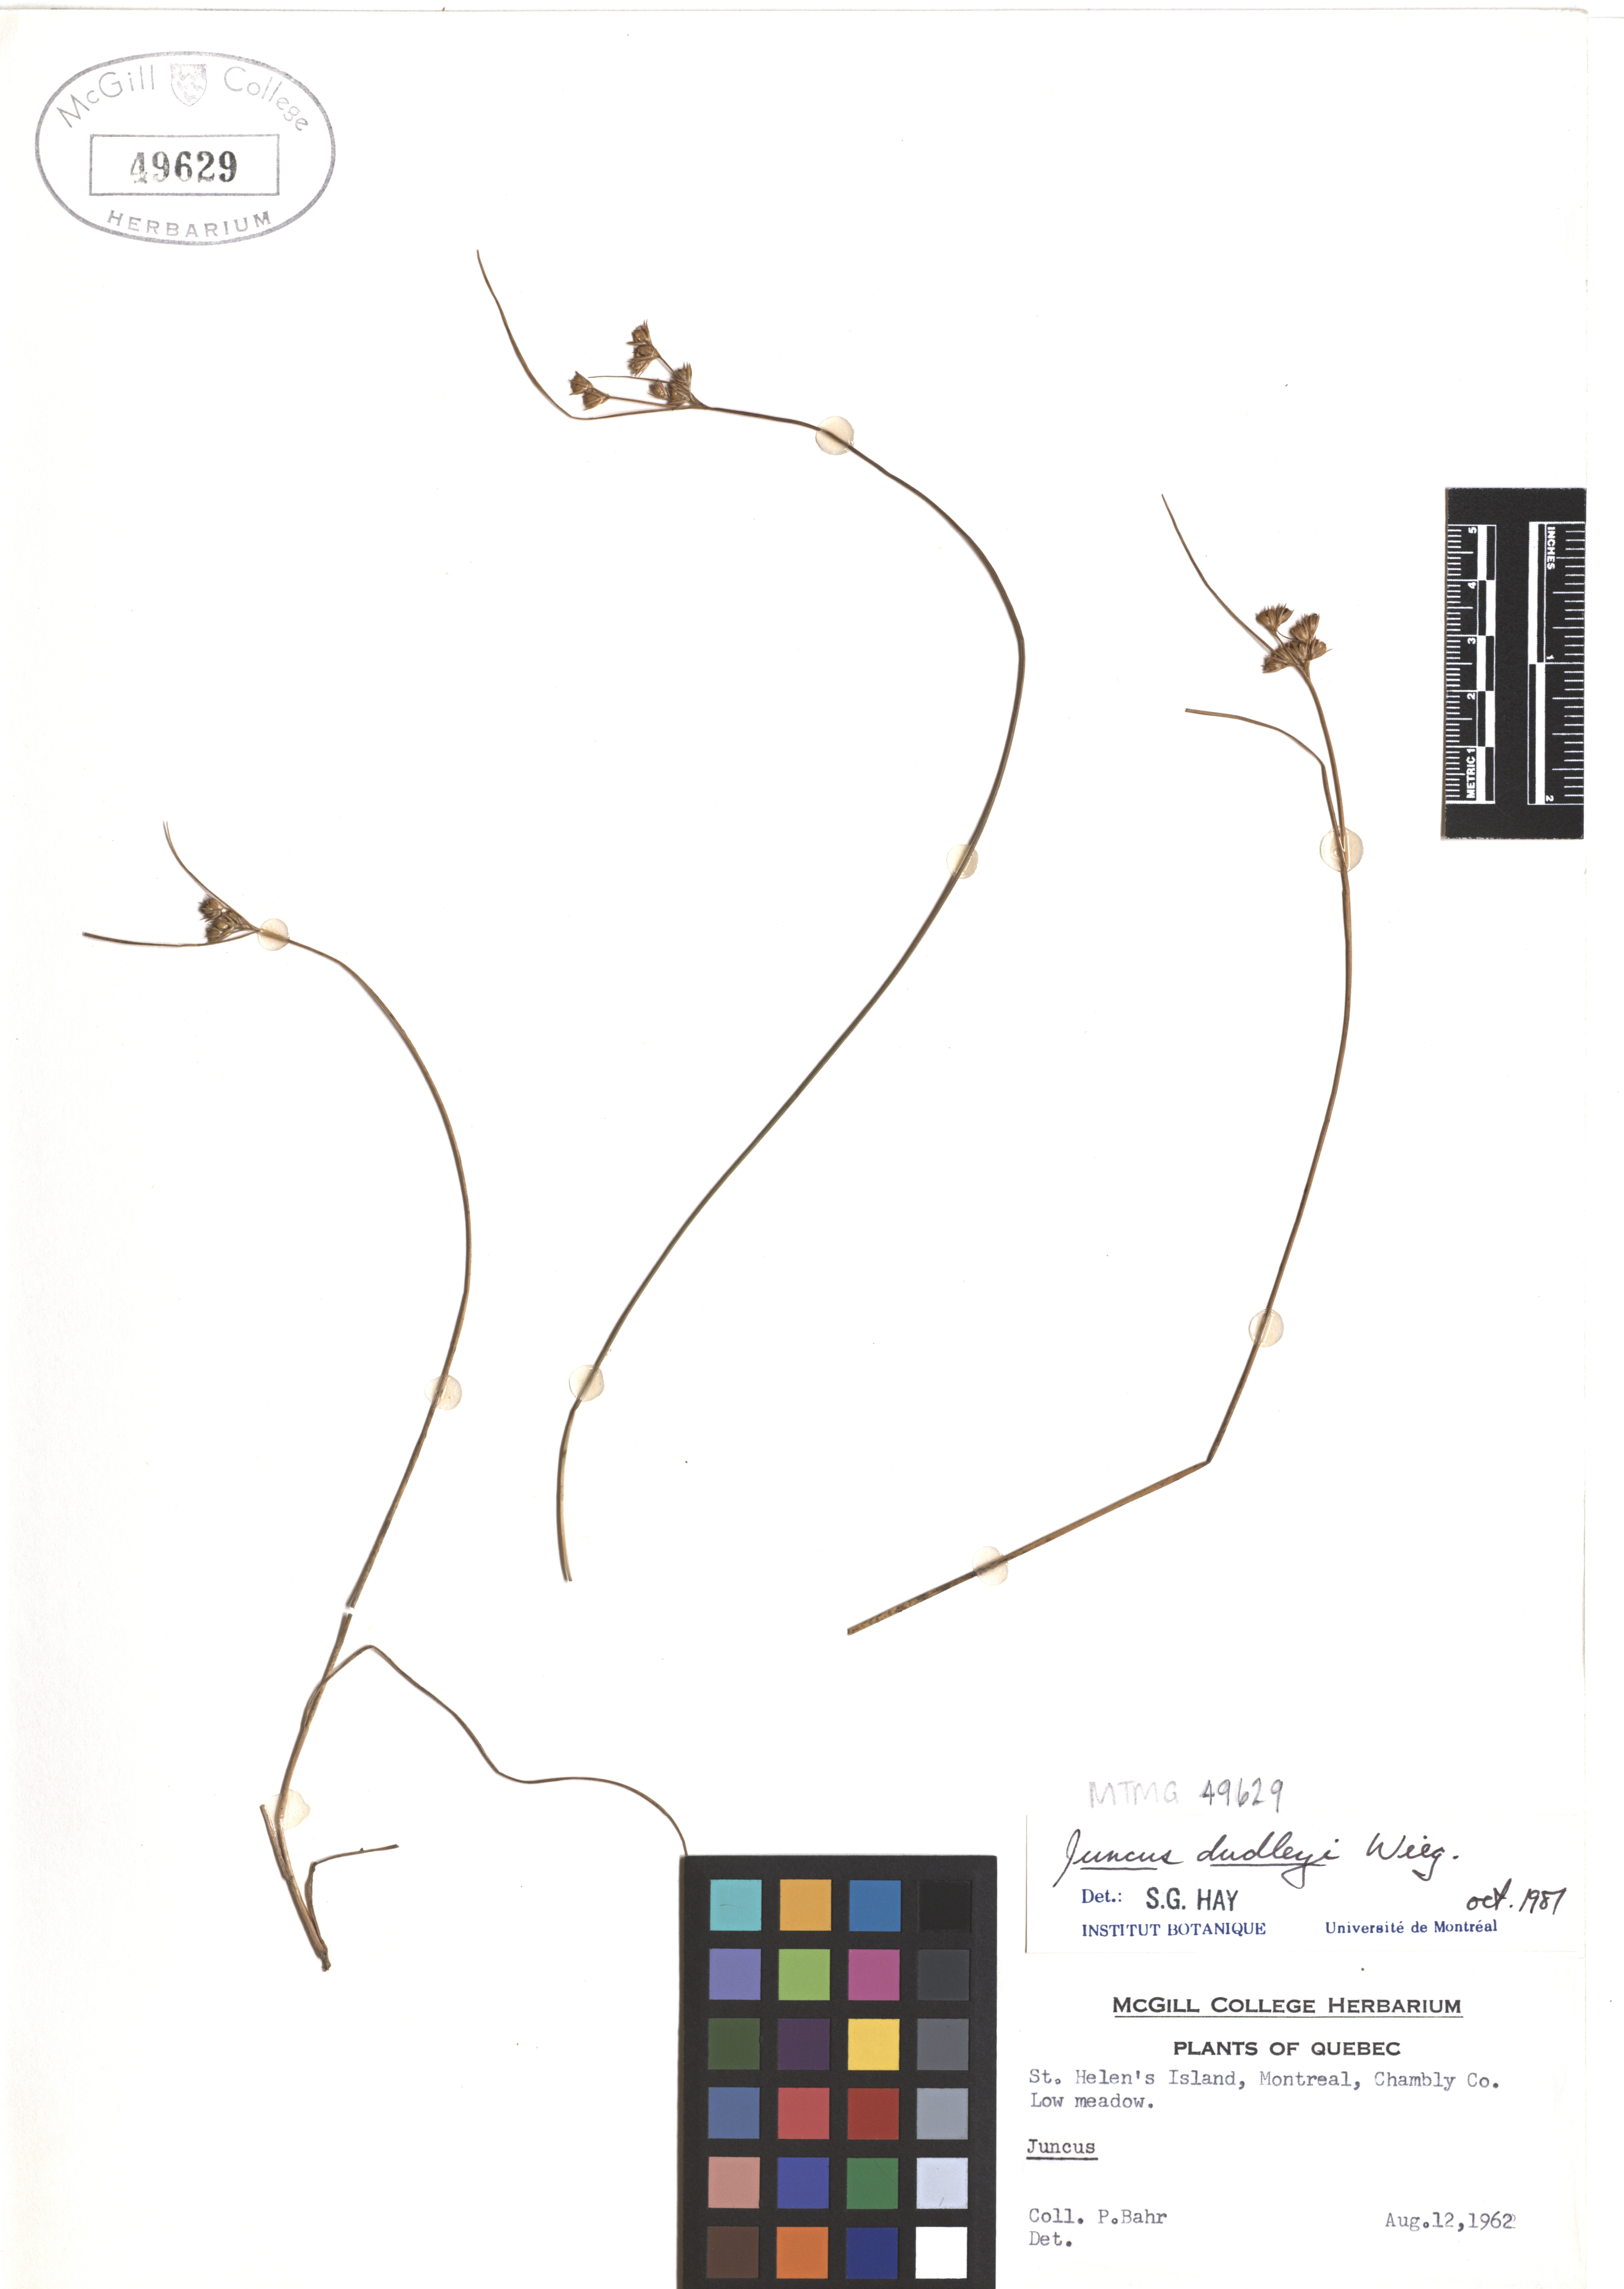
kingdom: Plantae
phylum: Tracheophyta
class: Liliopsida
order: Poales
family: Juncaceae
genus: Juncus
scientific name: Juncus dudleyi
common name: Dudley's rush
